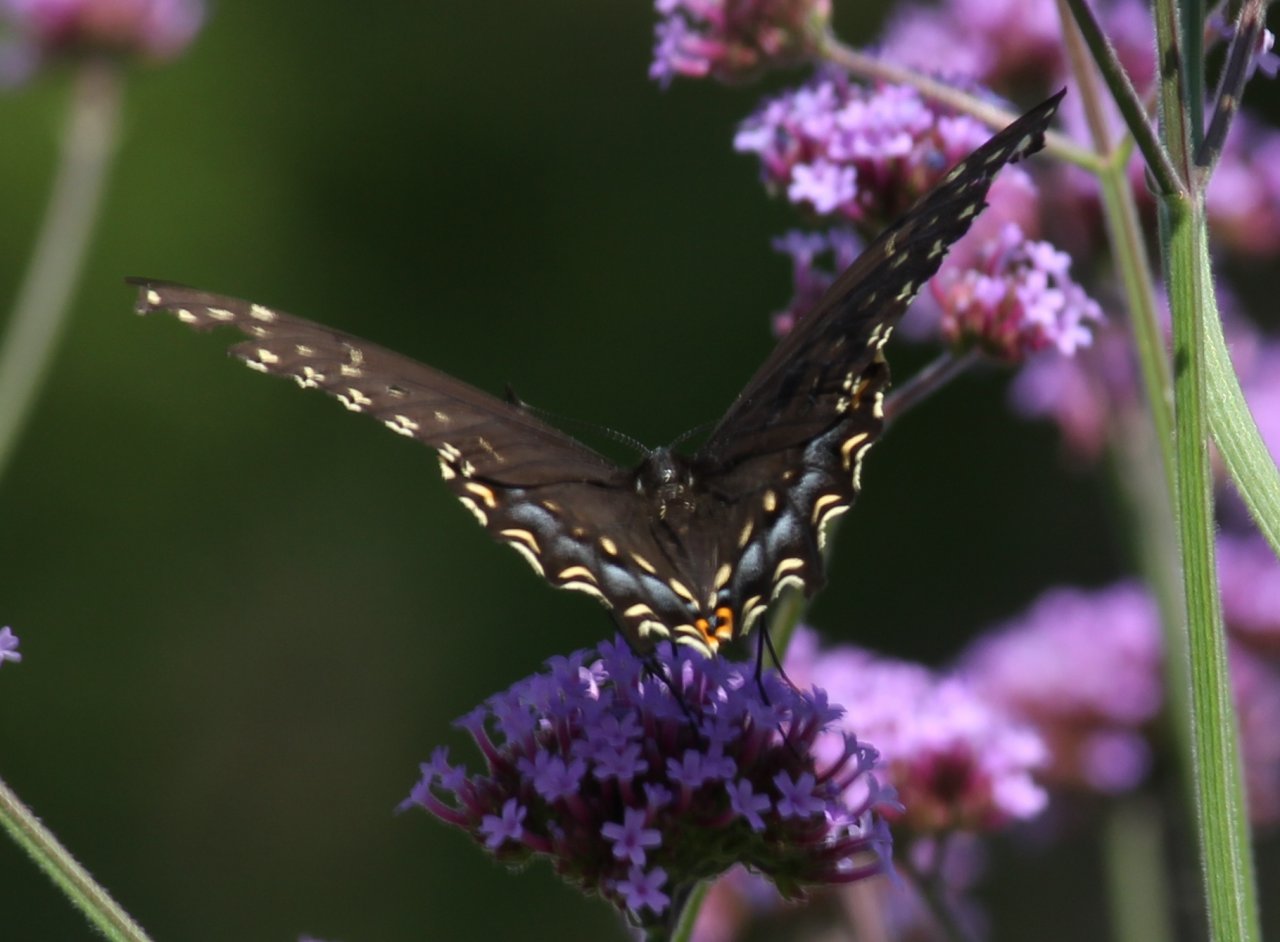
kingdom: Animalia
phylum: Arthropoda
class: Insecta
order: Lepidoptera
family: Papilionidae
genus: Papilio
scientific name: Papilio polyxenes
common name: Black Swallowtail
